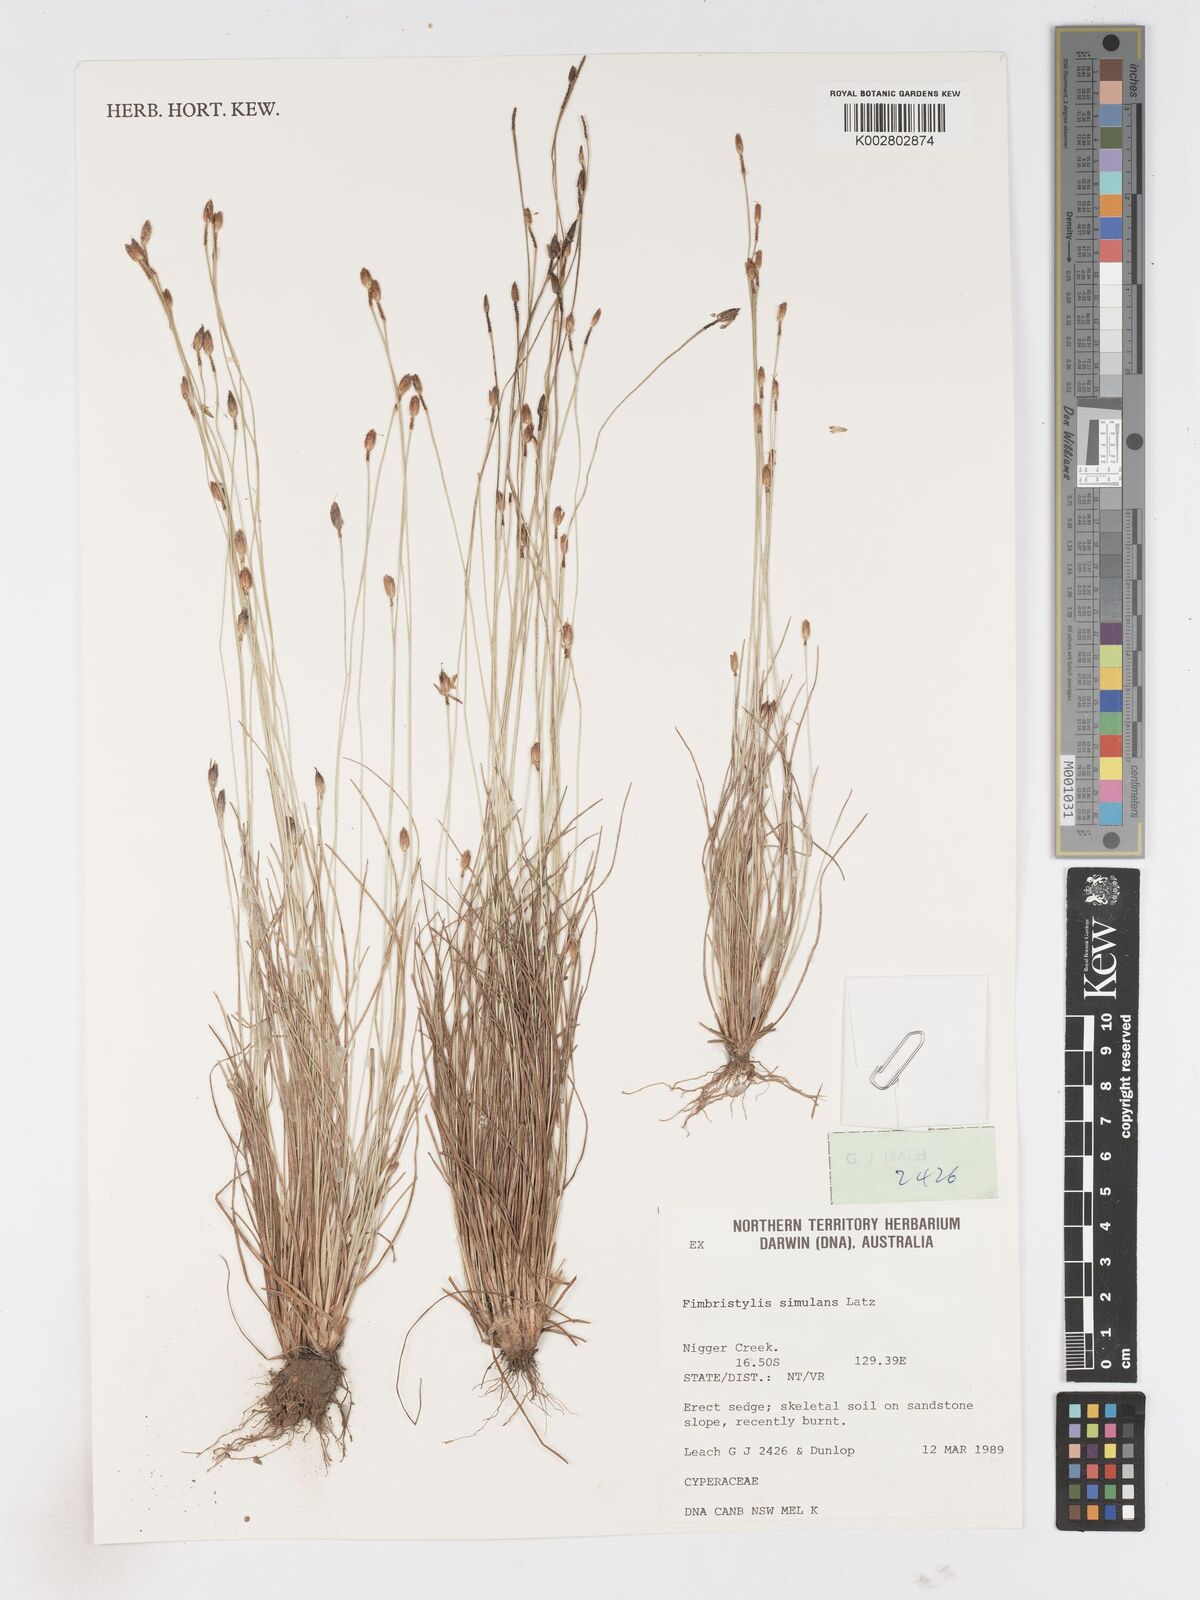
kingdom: Plantae
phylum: Tracheophyta
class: Liliopsida
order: Poales
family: Cyperaceae
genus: Fimbristylis
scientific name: Fimbristylis simulans
